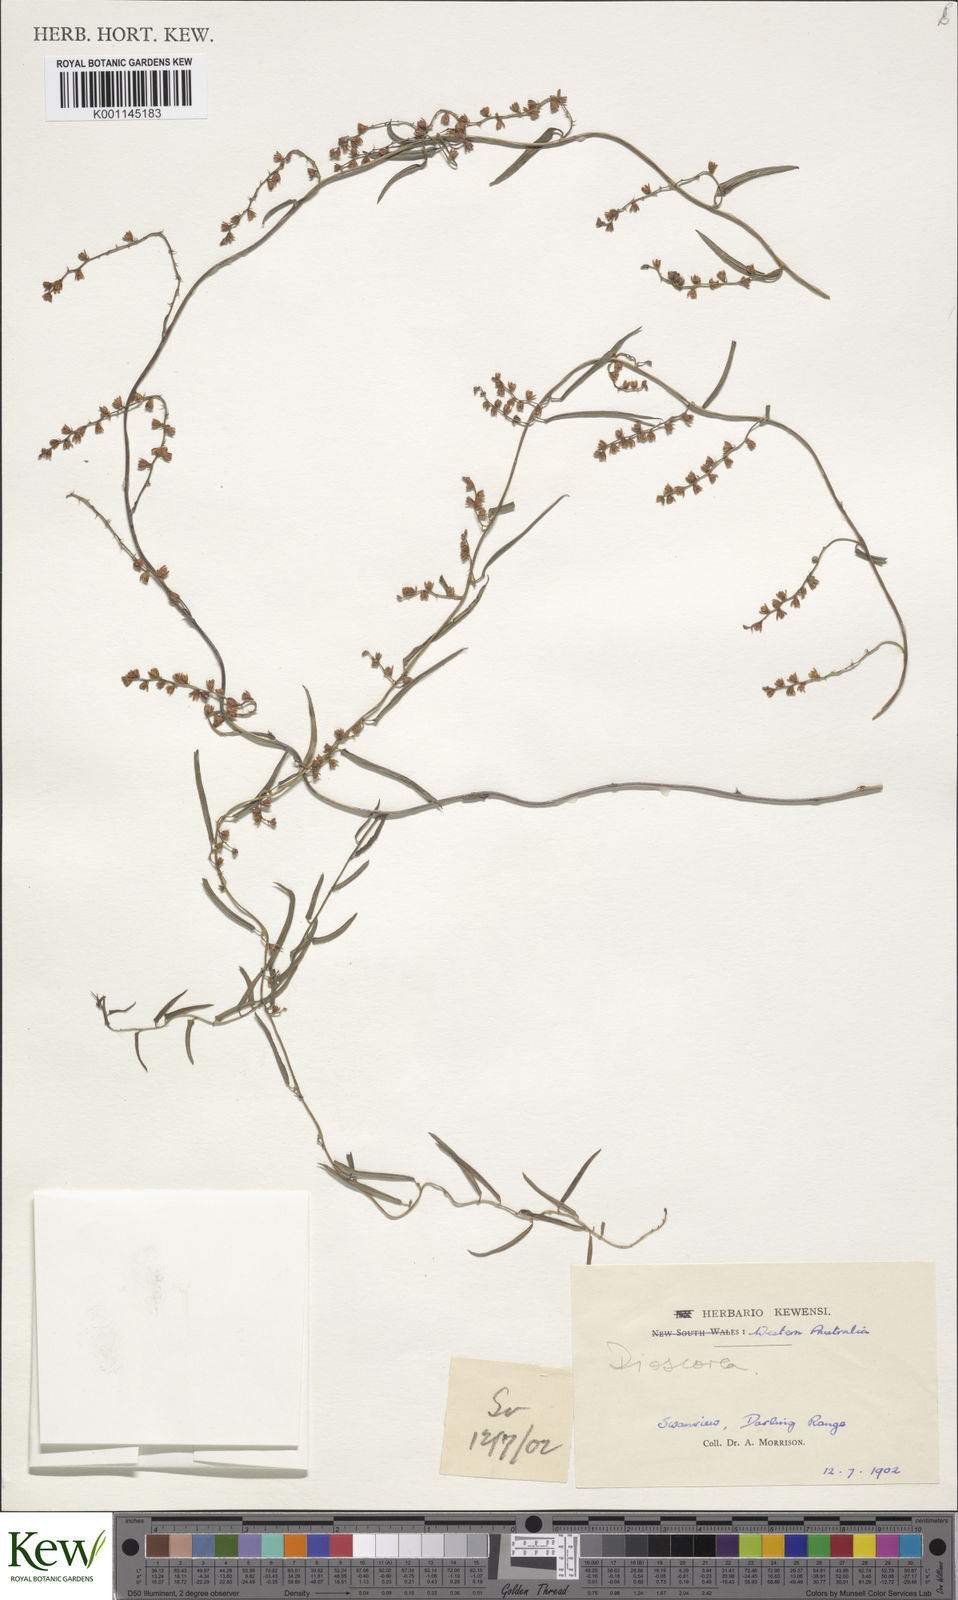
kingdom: Plantae
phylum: Tracheophyta
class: Liliopsida
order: Dioscoreales
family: Dioscoreaceae
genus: Dioscorea
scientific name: Dioscorea
